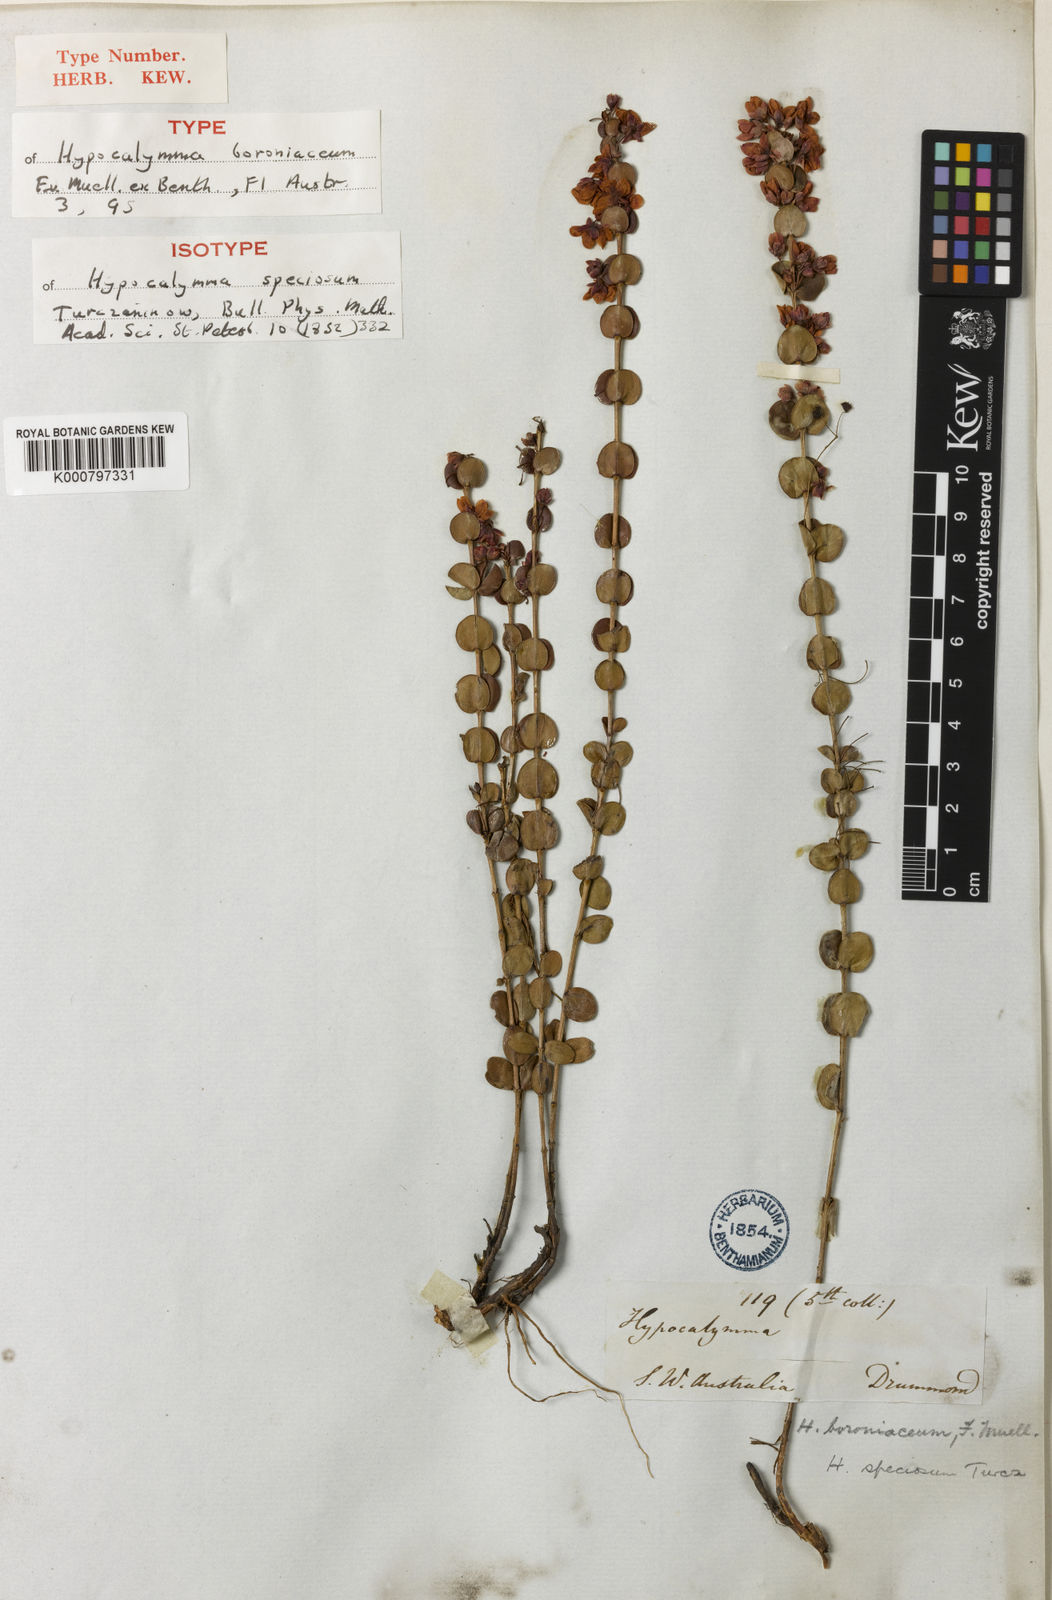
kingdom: Plantae
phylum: Tracheophyta
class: Magnoliopsida
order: Myrtales
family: Myrtaceae
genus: Hypocalymma
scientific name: Hypocalymma speciosum
